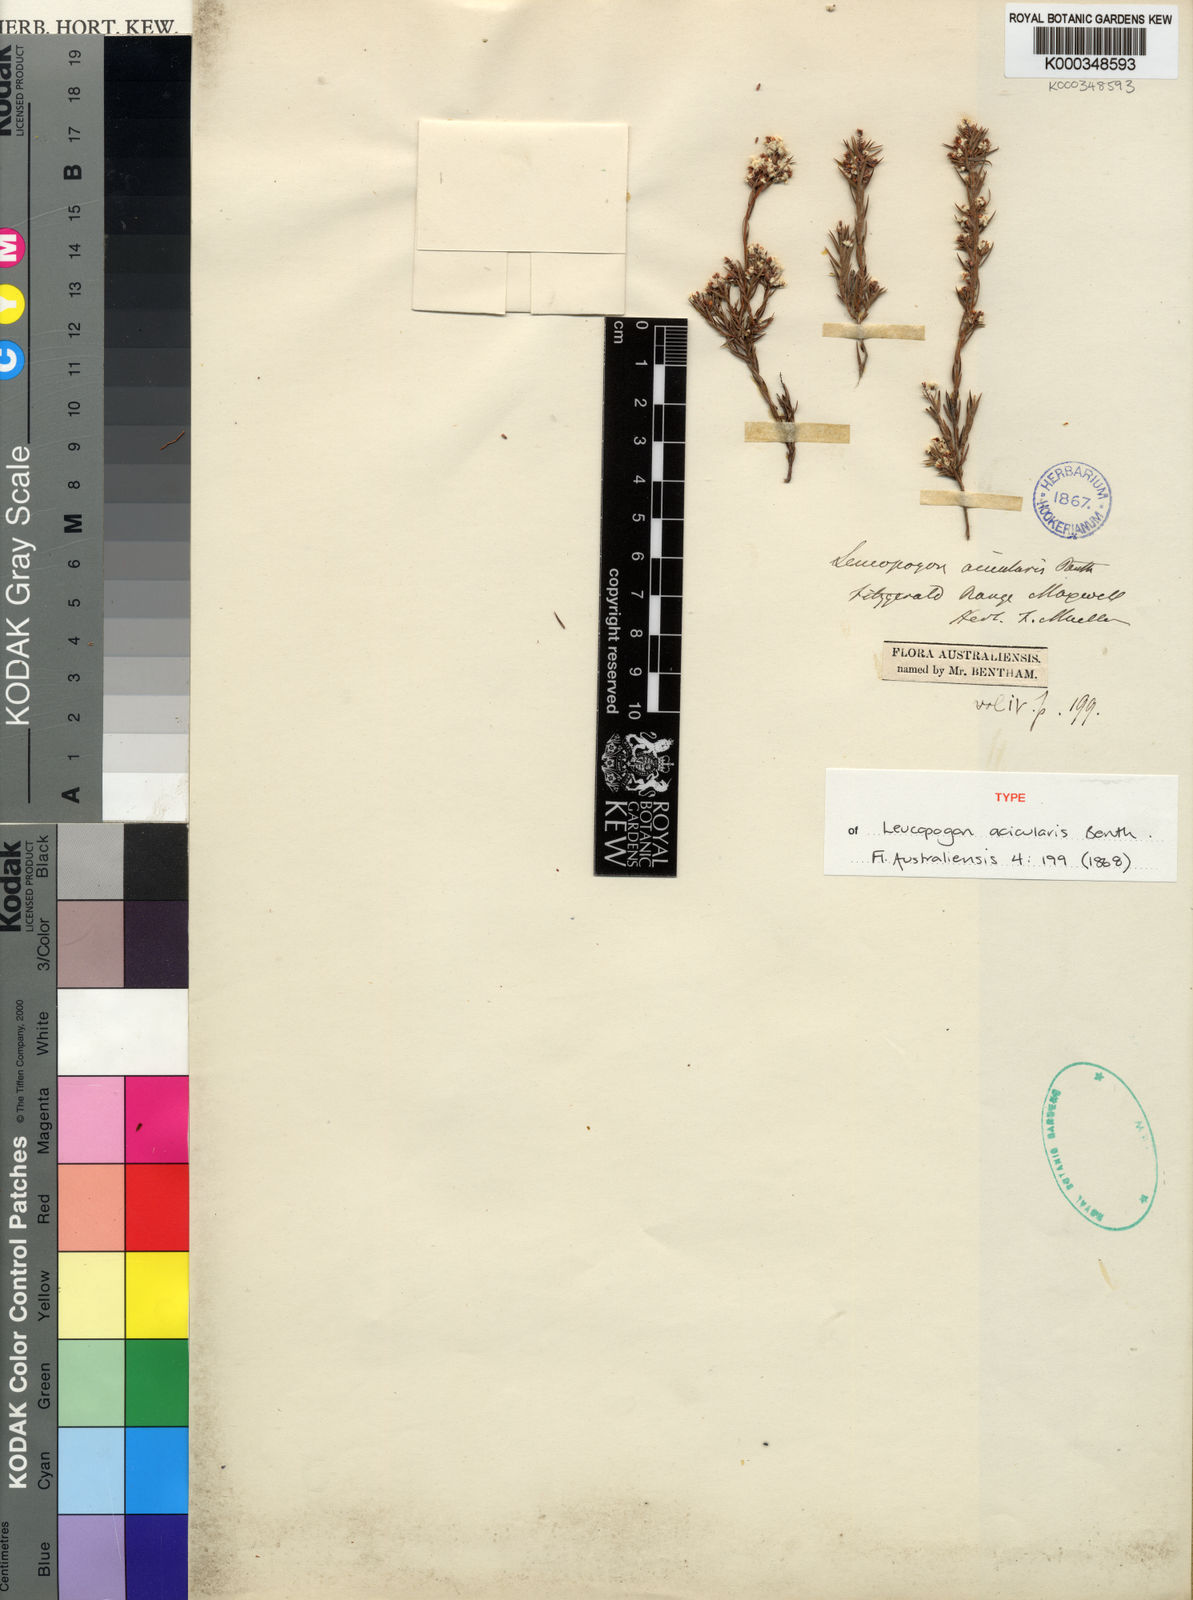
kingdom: Plantae
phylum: Tracheophyta
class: Magnoliopsida
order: Ericales
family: Ericaceae
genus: Leucopogon
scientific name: Leucopogon acicularis
